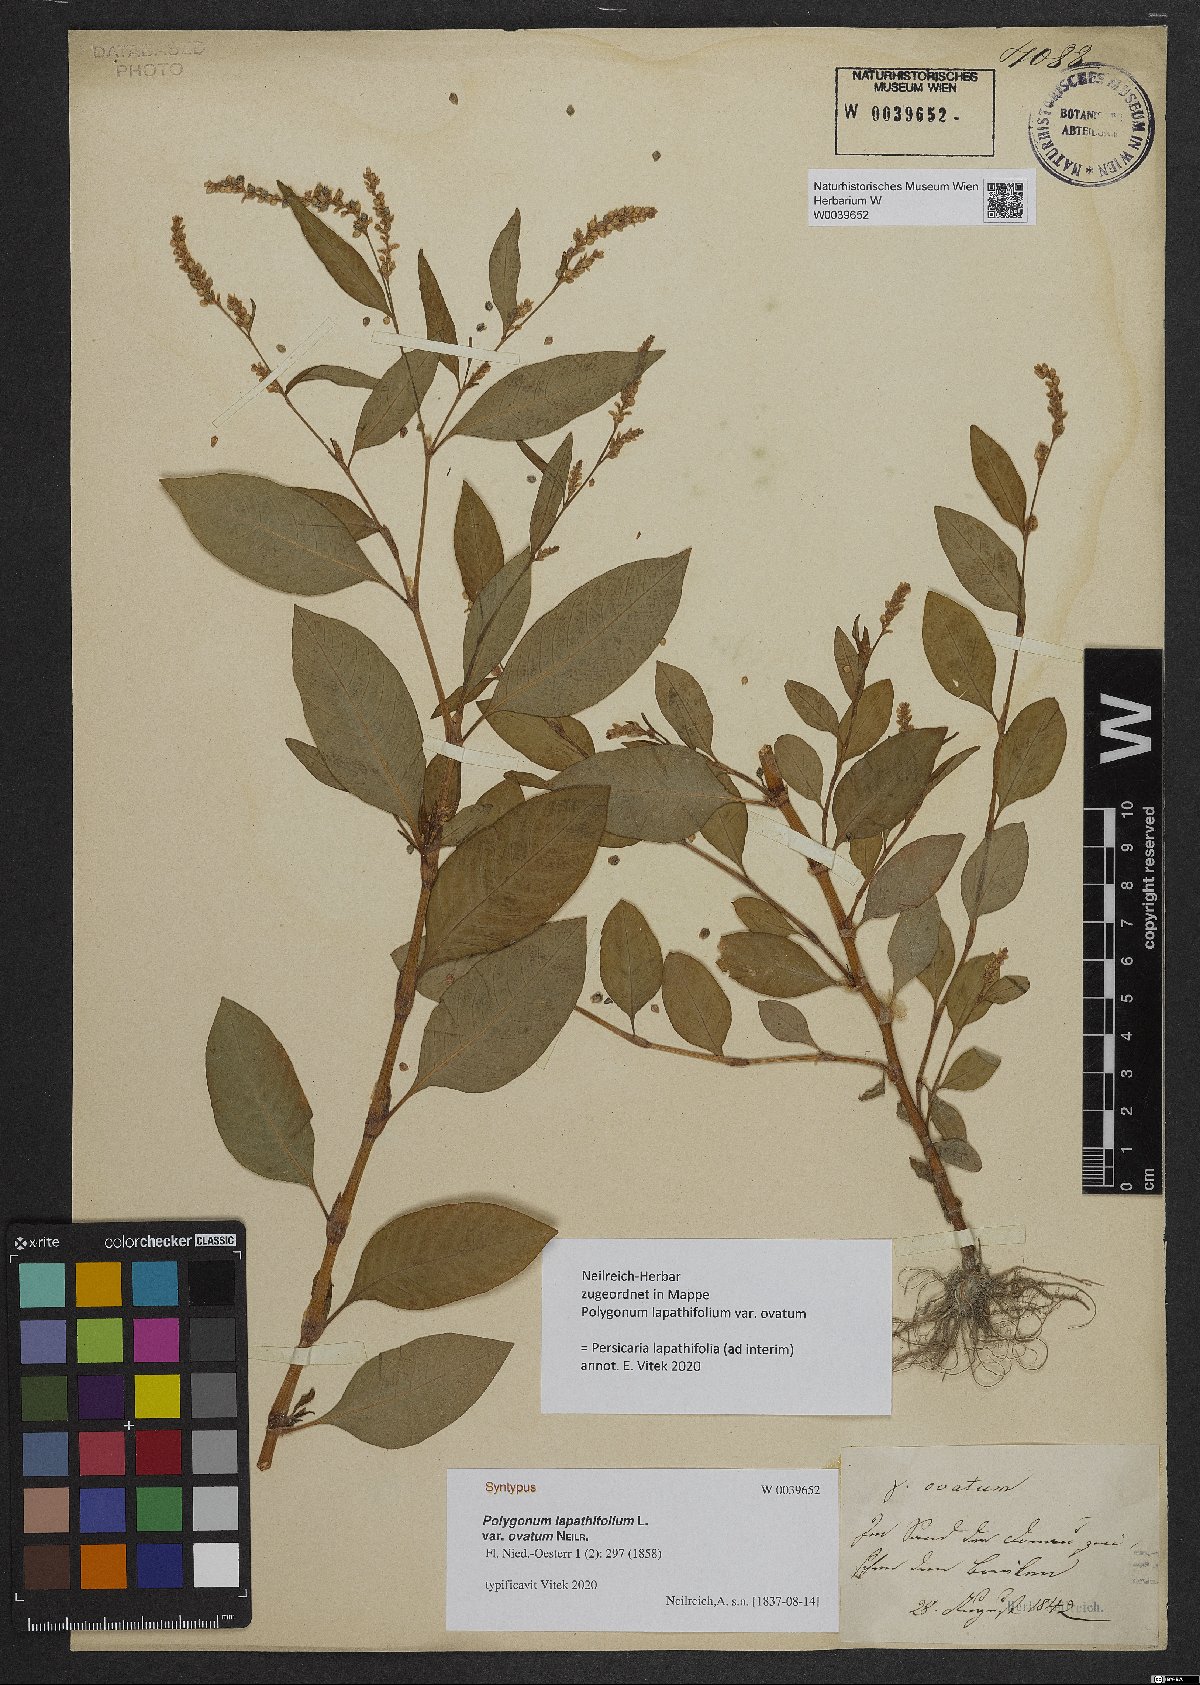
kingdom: Plantae
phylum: Tracheophyta
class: Magnoliopsida
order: Caryophyllales
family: Polygonaceae
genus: Persicaria
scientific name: Persicaria lapathifolia
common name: Curlytop knotweed
